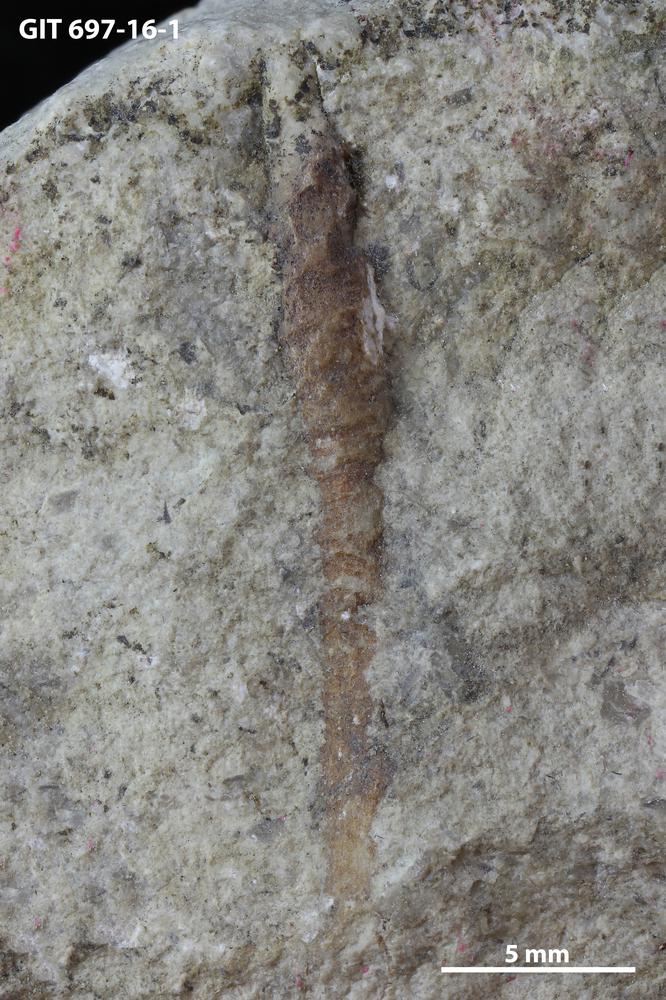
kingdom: Animalia
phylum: Annelida
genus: Oikobesalon
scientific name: Oikobesalon
